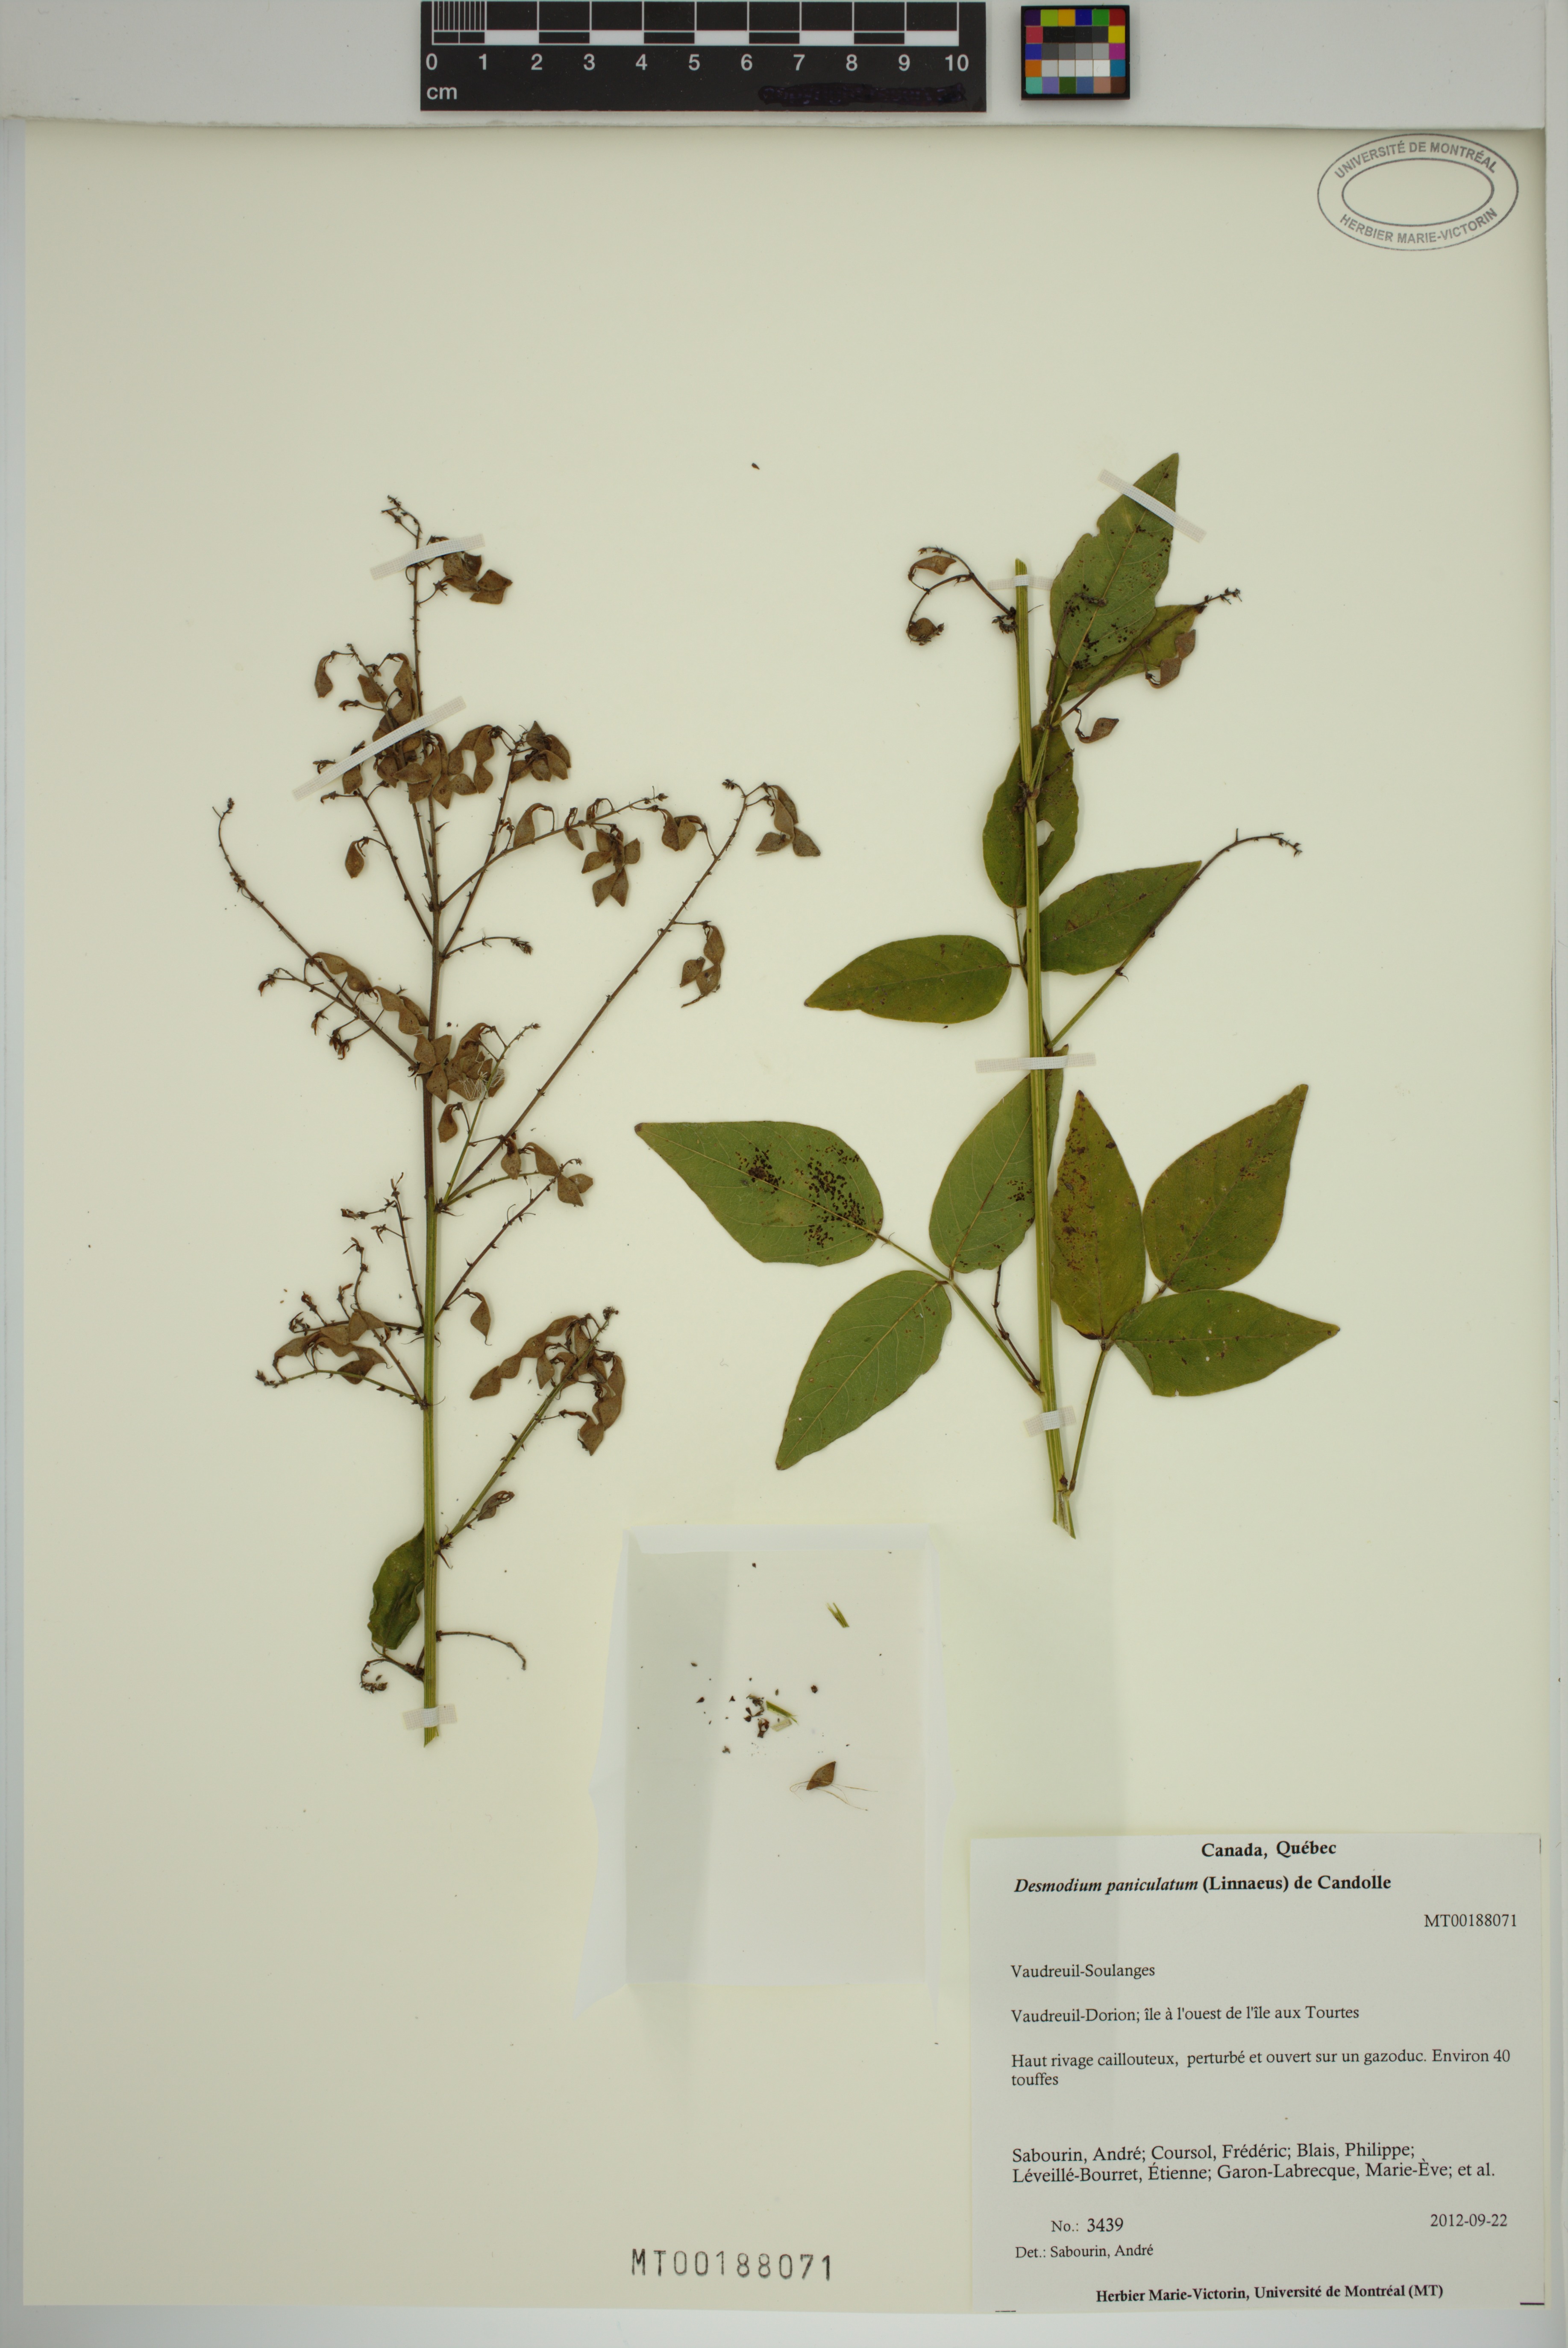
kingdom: Plantae
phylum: Tracheophyta
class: Magnoliopsida
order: Fabales
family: Fabaceae
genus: Desmodium
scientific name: Desmodium paniculatum
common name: Panicled tick-clover
